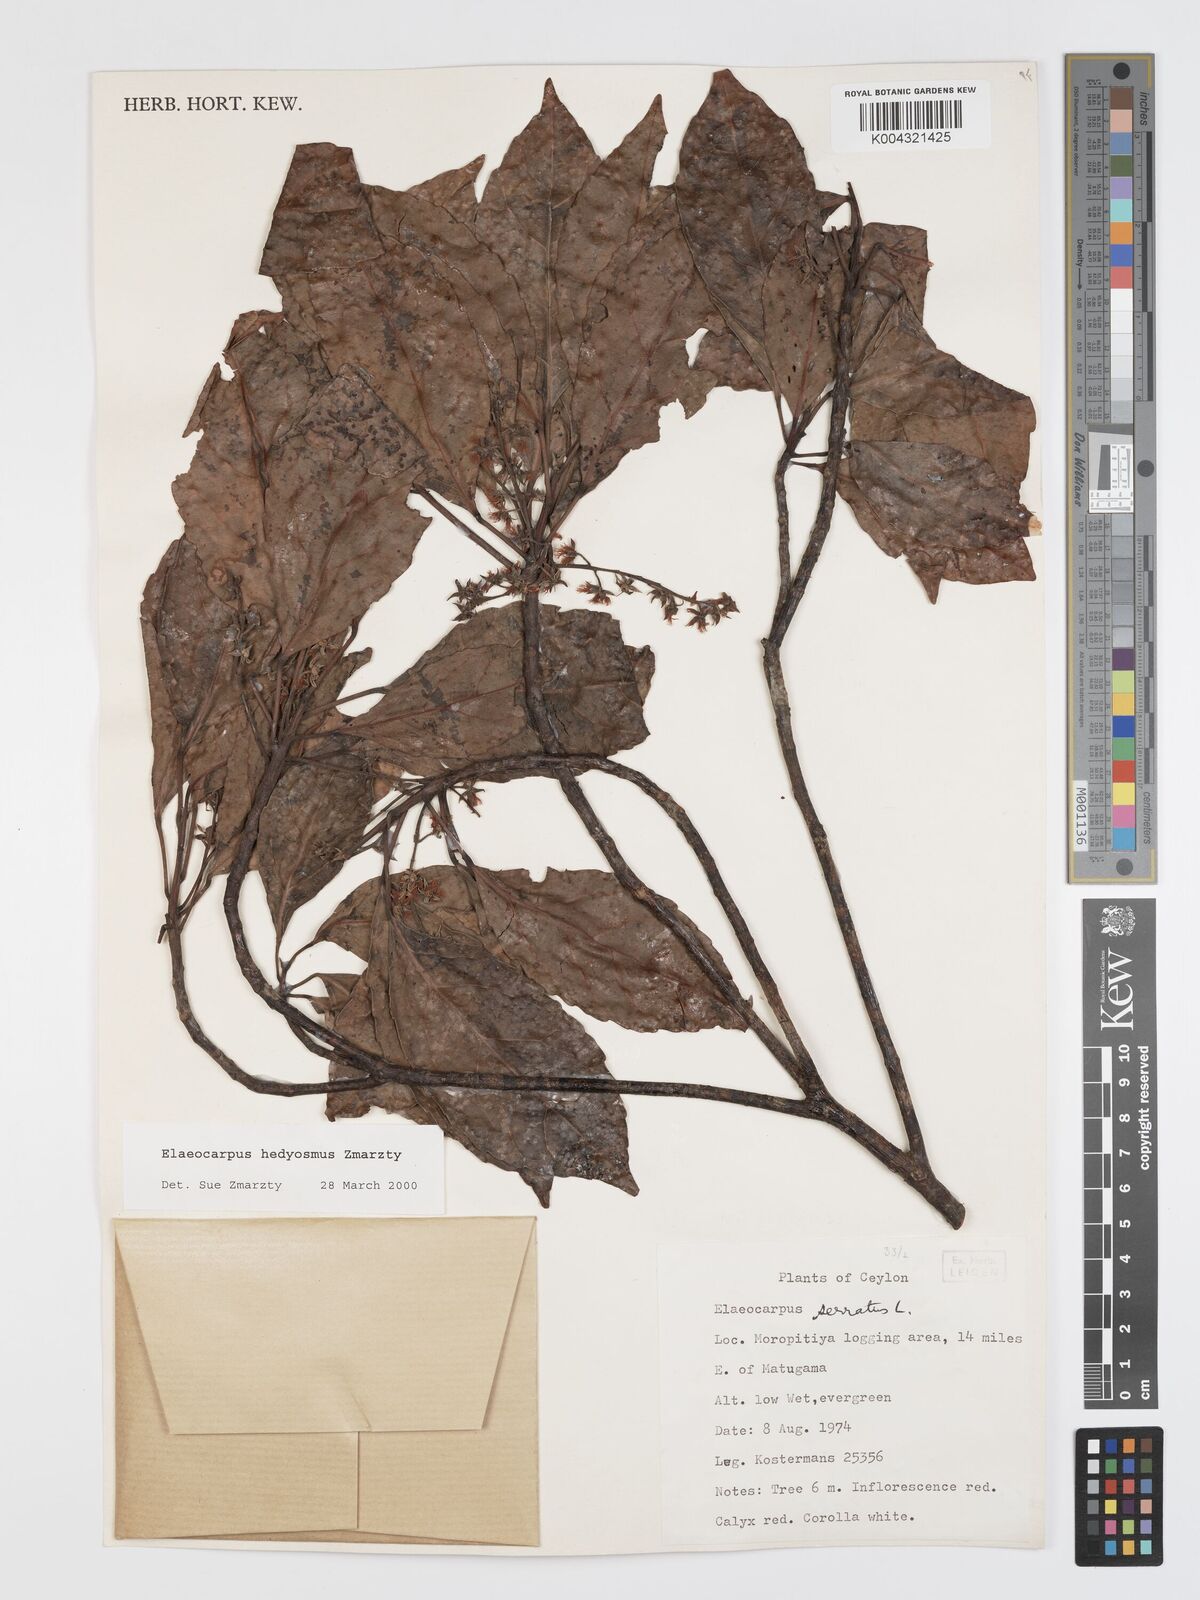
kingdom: Plantae
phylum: Tracheophyta
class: Magnoliopsida
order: Oxalidales
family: Elaeocarpaceae
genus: Elaeocarpus
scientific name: Elaeocarpus hedyosmus
